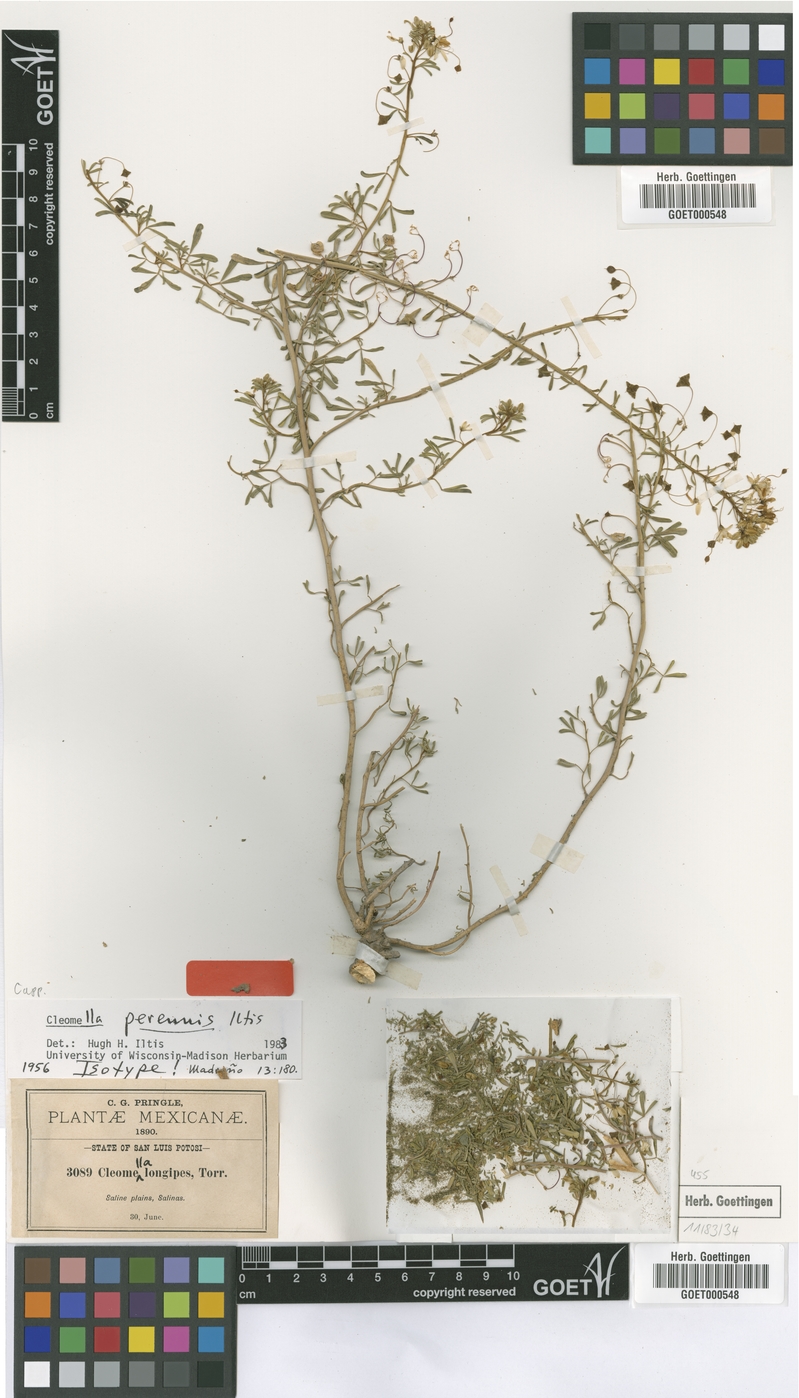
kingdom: Plantae
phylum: Tracheophyta
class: Magnoliopsida
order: Brassicales
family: Cleomaceae
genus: Cleomella
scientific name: Cleomella perennis
